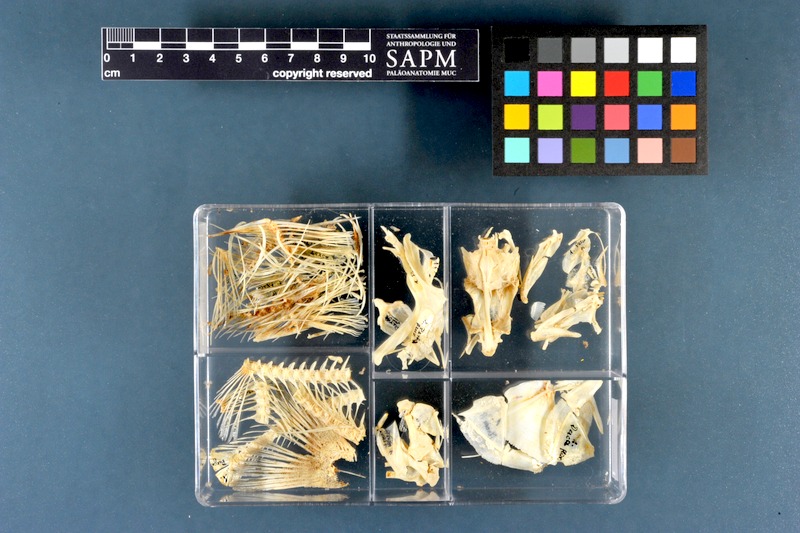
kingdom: Animalia
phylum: Chordata
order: Perciformes
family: Percidae
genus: Perca
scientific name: Perca fluviatilis
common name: Perch
